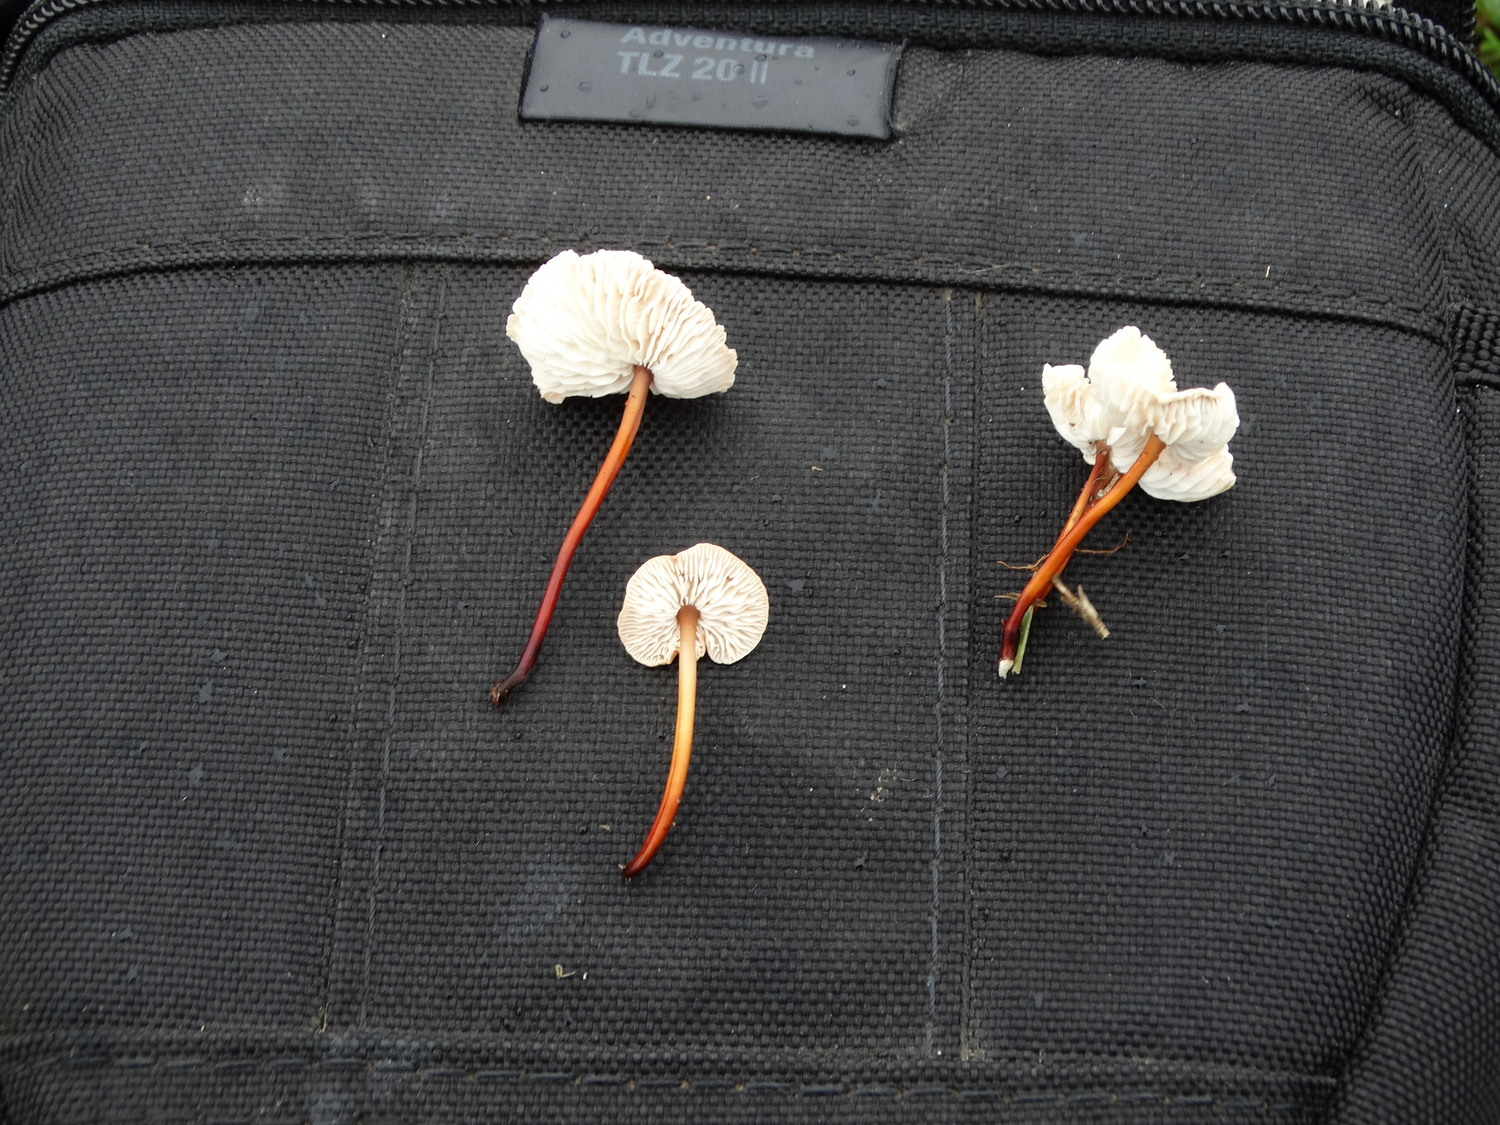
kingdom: Fungi
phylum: Basidiomycota
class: Agaricomycetes
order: Agaricales
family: Omphalotaceae
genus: Mycetinis
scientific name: Mycetinis scorodonius
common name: lille løghat
